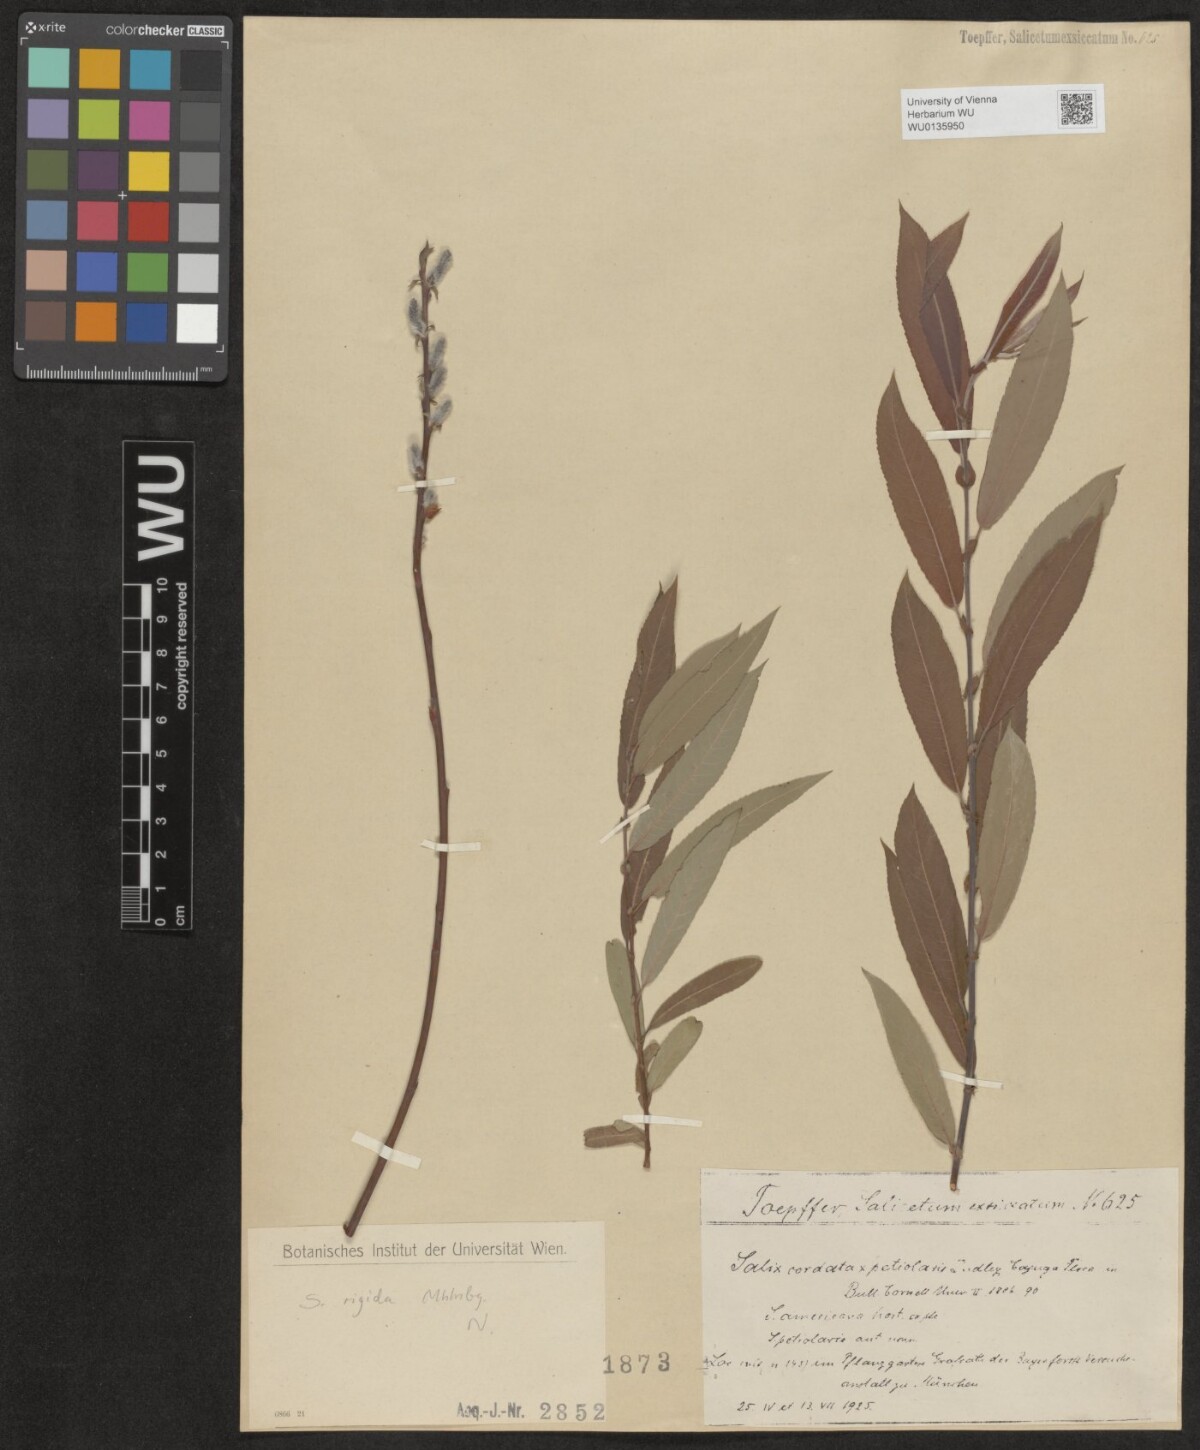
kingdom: Plantae
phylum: Tracheophyta
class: Magnoliopsida
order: Malpighiales
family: Salicaceae
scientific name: Salicaceae
